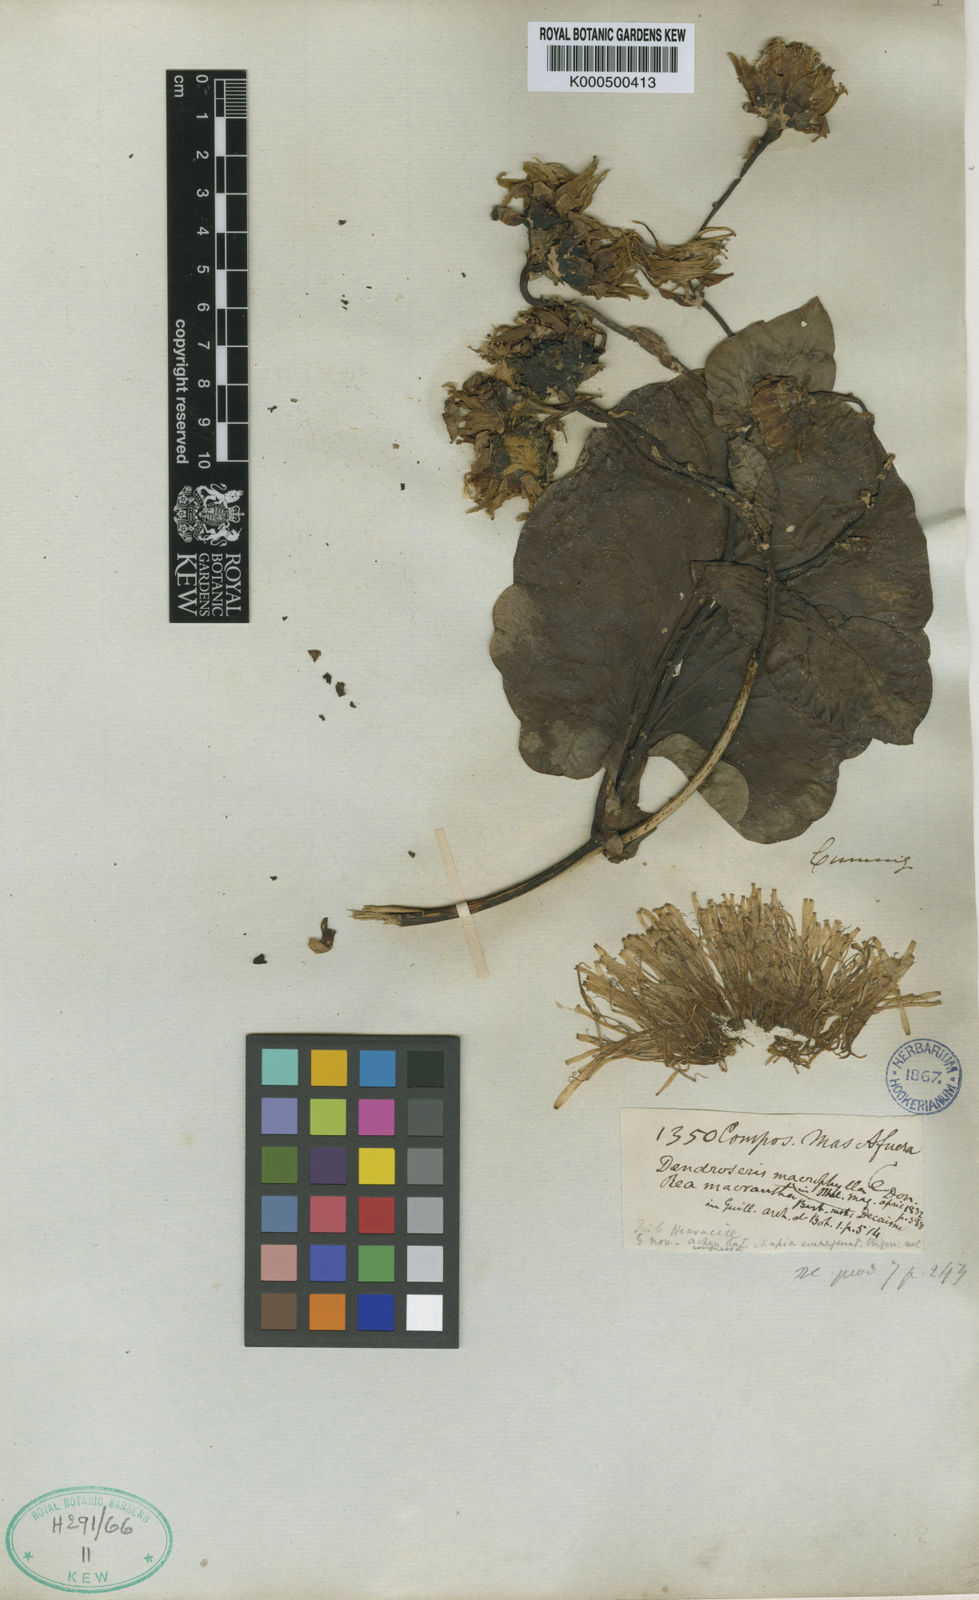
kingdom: Plantae
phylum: Tracheophyta
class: Magnoliopsida
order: Asterales
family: Asteraceae
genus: Sonchus
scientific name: Sonchus splendens
